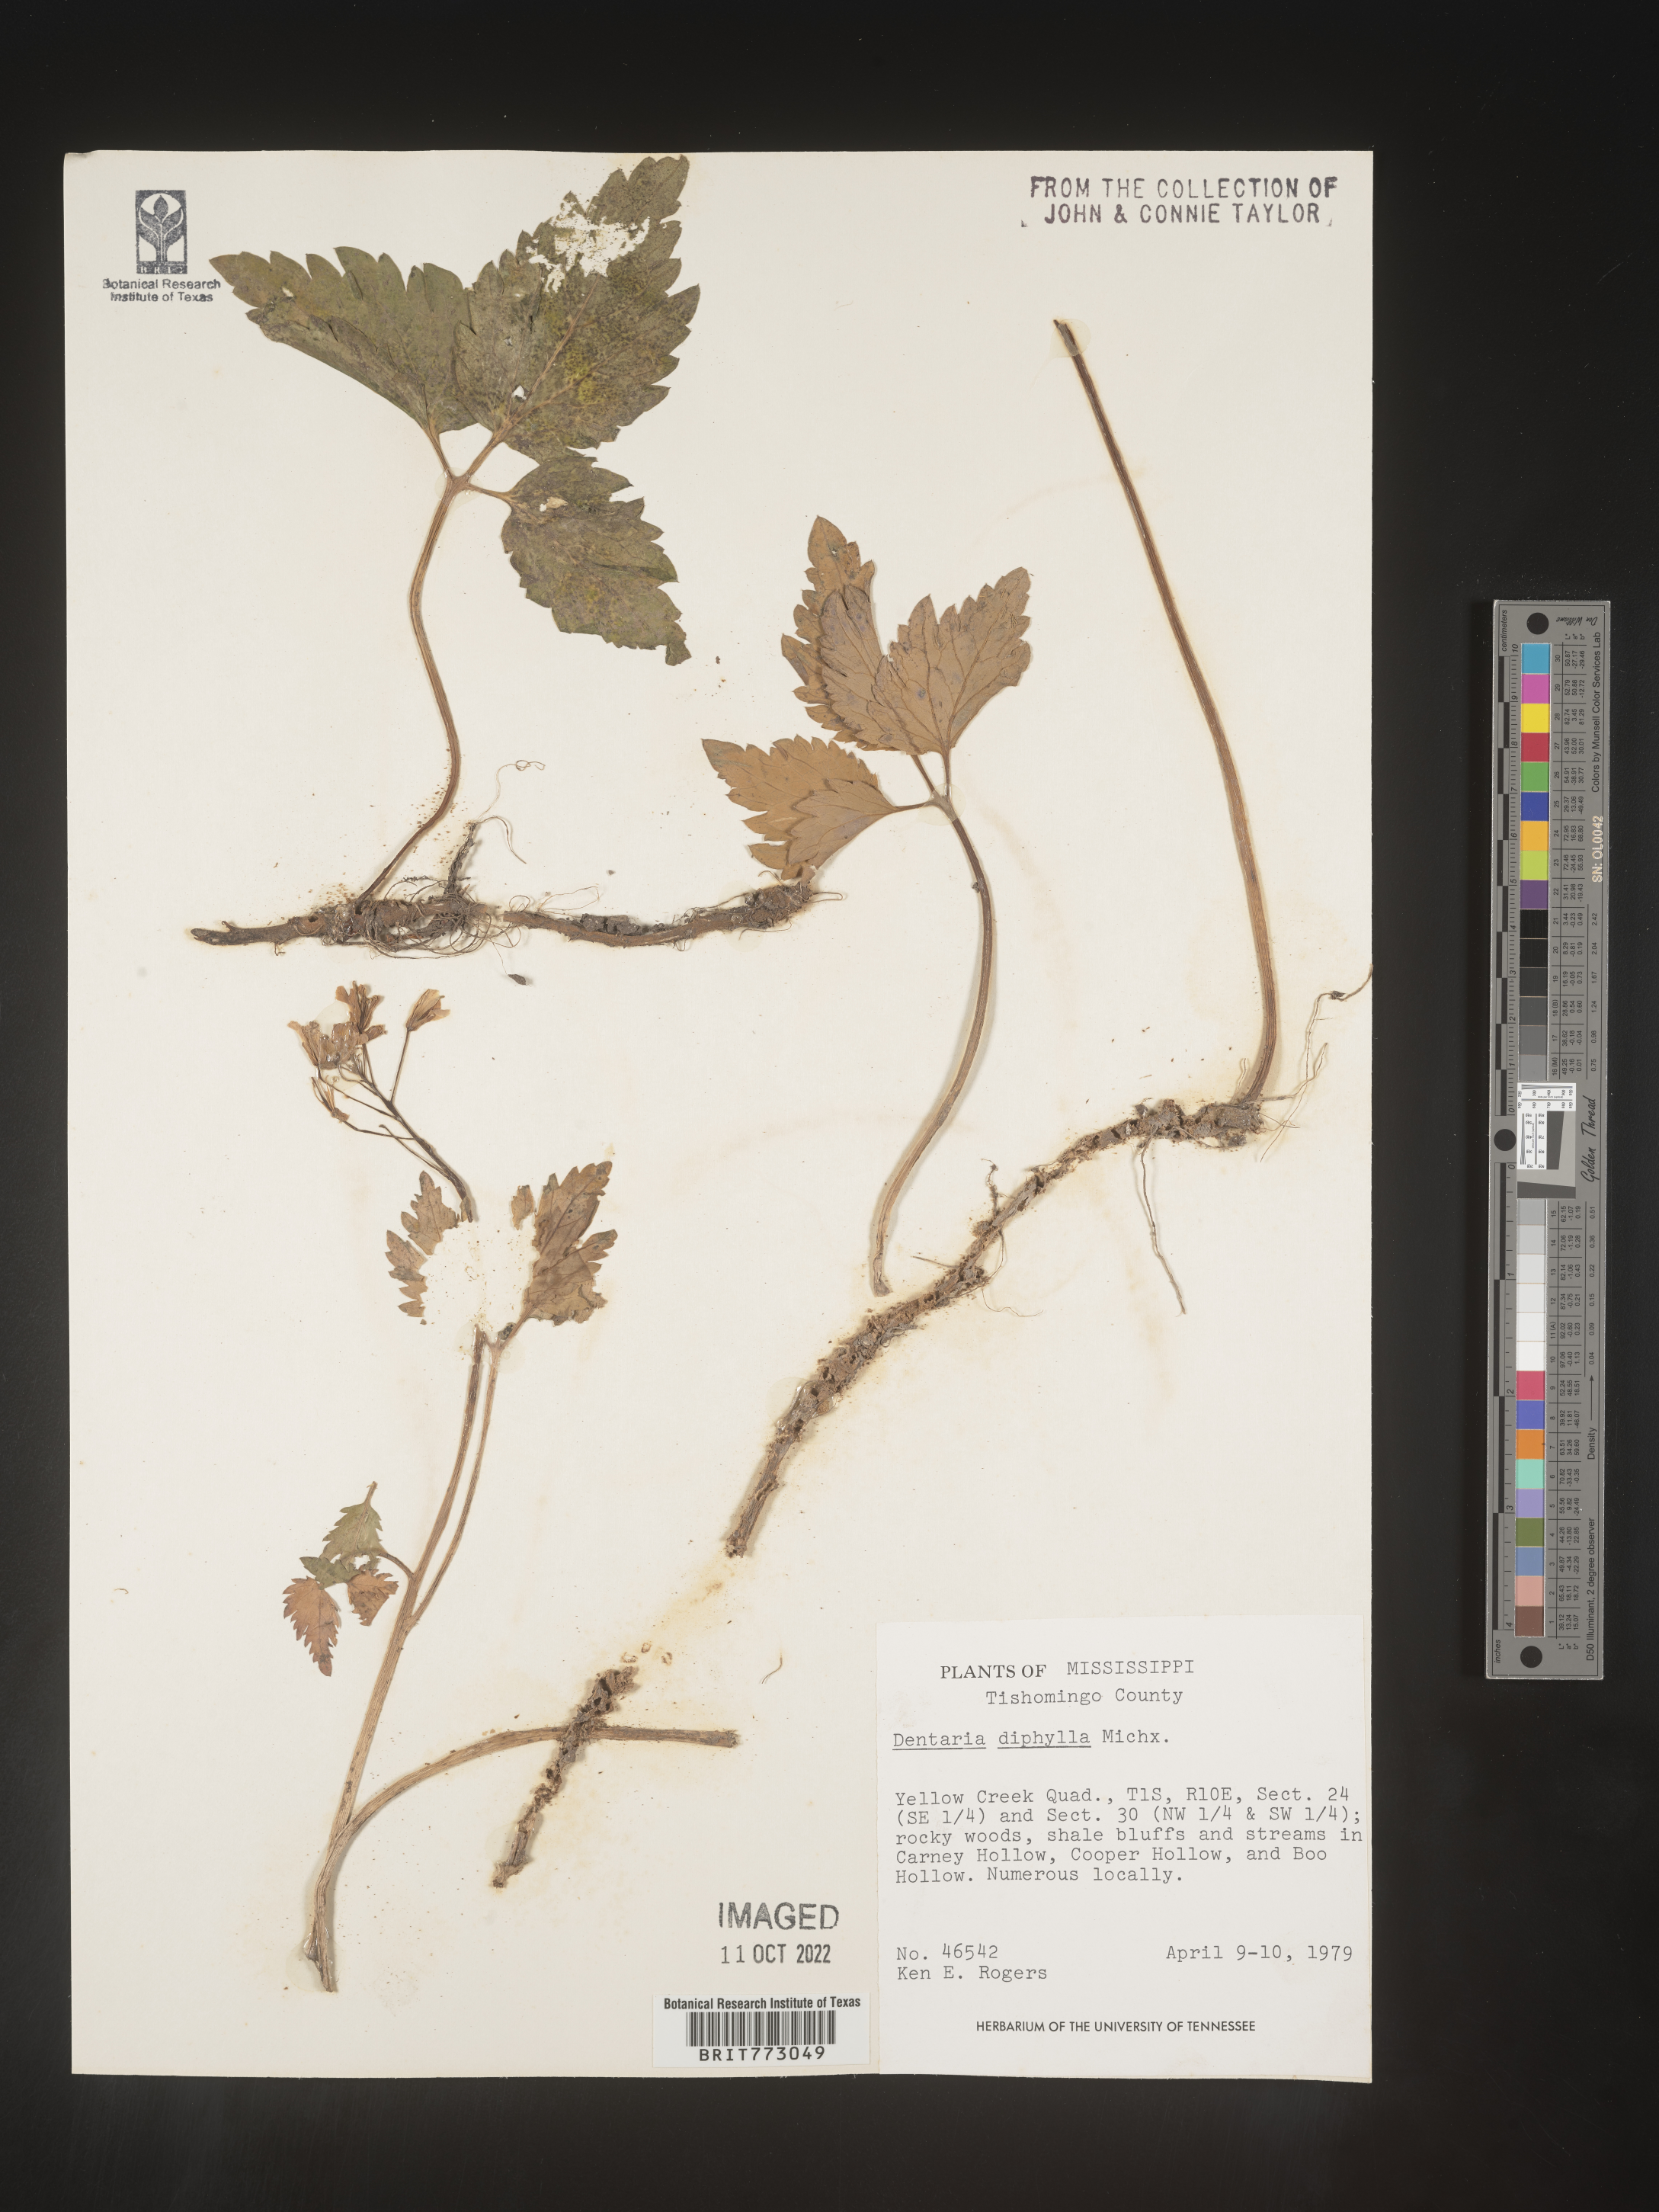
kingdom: Plantae
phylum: Tracheophyta
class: Magnoliopsida
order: Brassicales
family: Brassicaceae
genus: Cardamine
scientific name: Cardamine diphylla
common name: Broad-leaved toothwort
